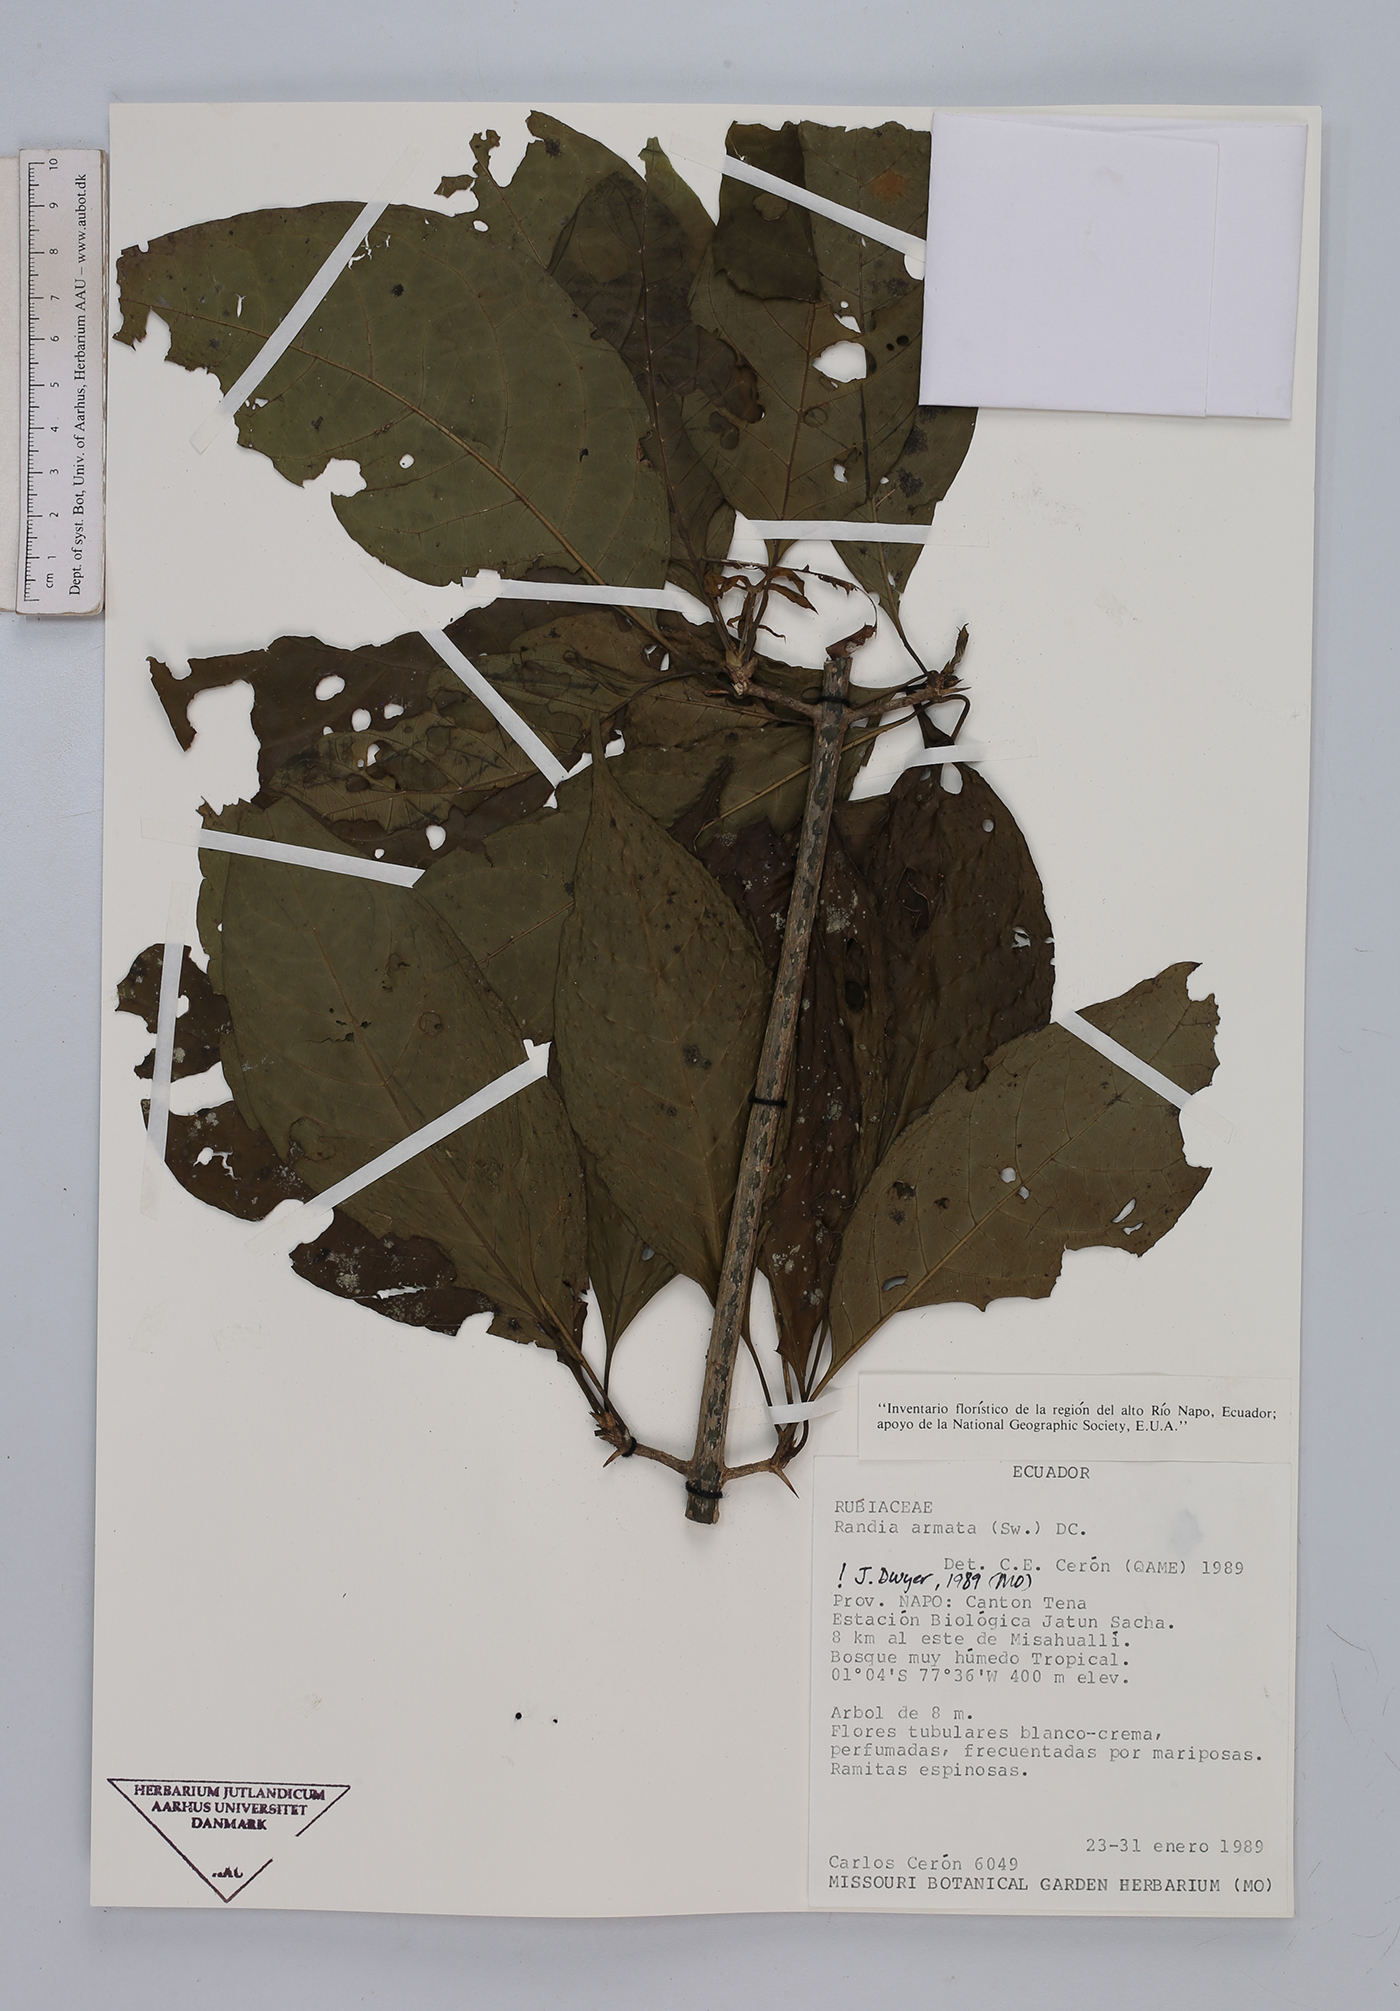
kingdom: Plantae
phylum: Tracheophyta
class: Magnoliopsida
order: Gentianales
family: Rubiaceae
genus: Randia
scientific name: Randia armata
